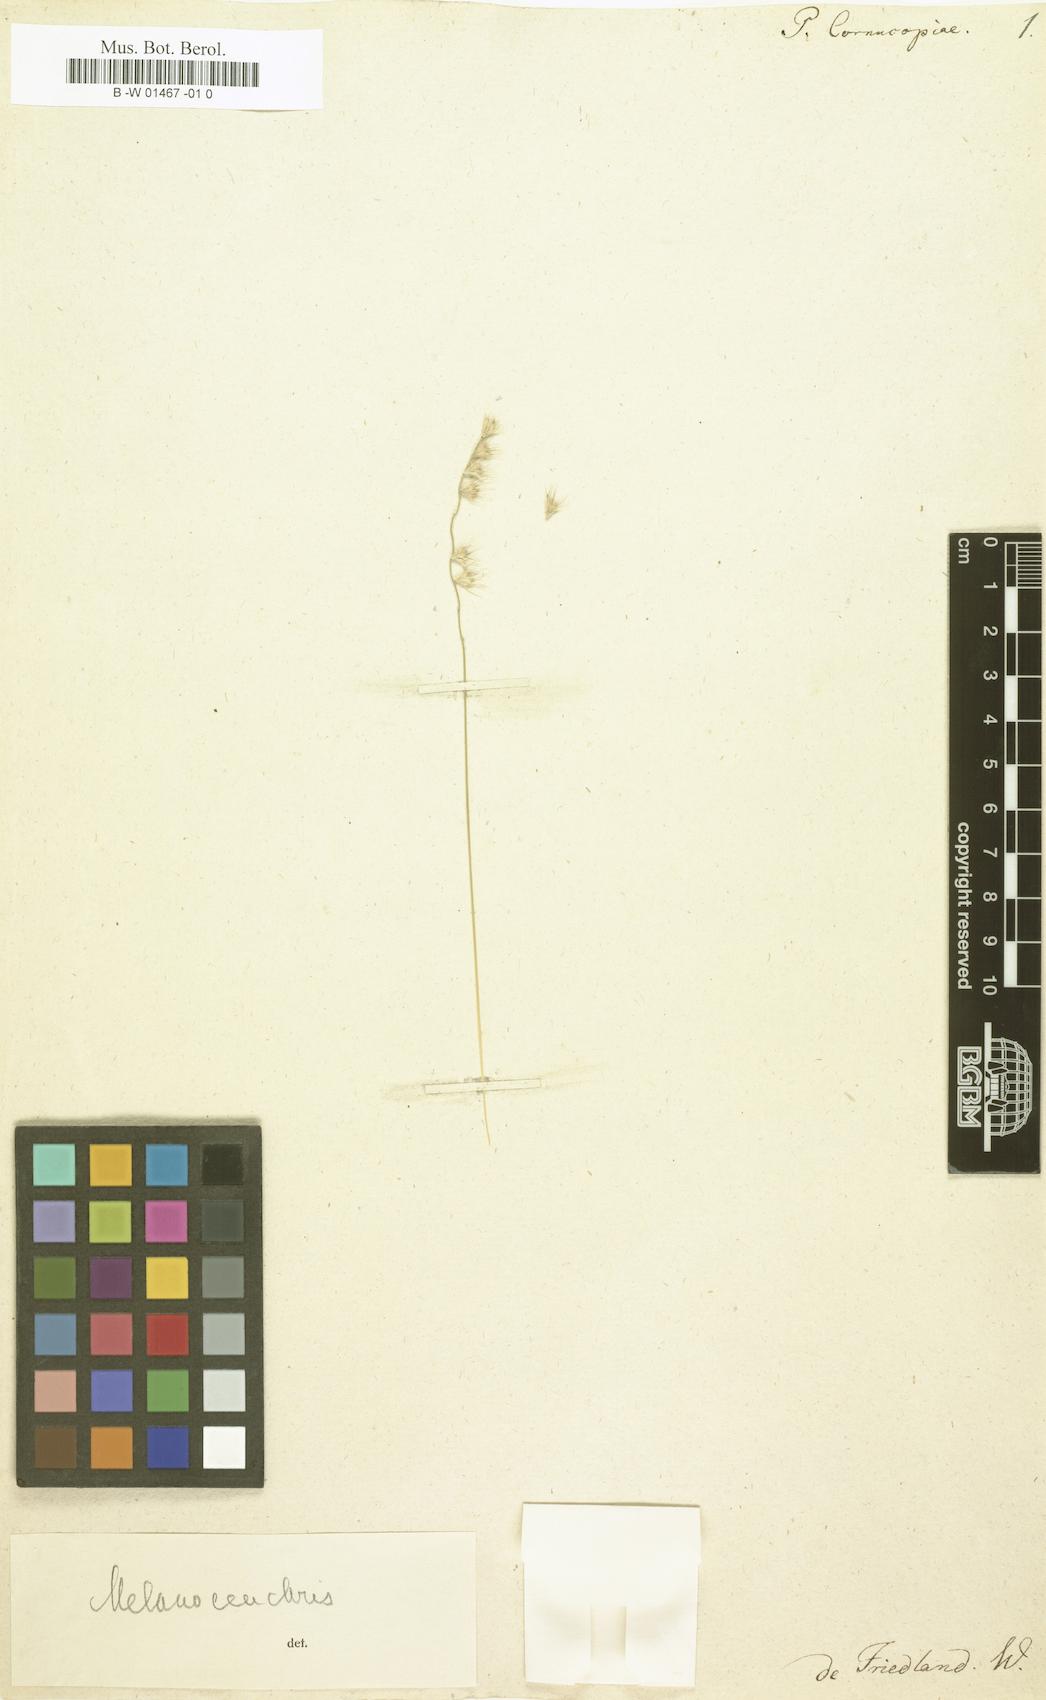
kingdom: Plantae
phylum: Tracheophyta
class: Liliopsida
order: Poales
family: Poaceae
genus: Pommereulla
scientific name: Pommereulla cornucopiae
